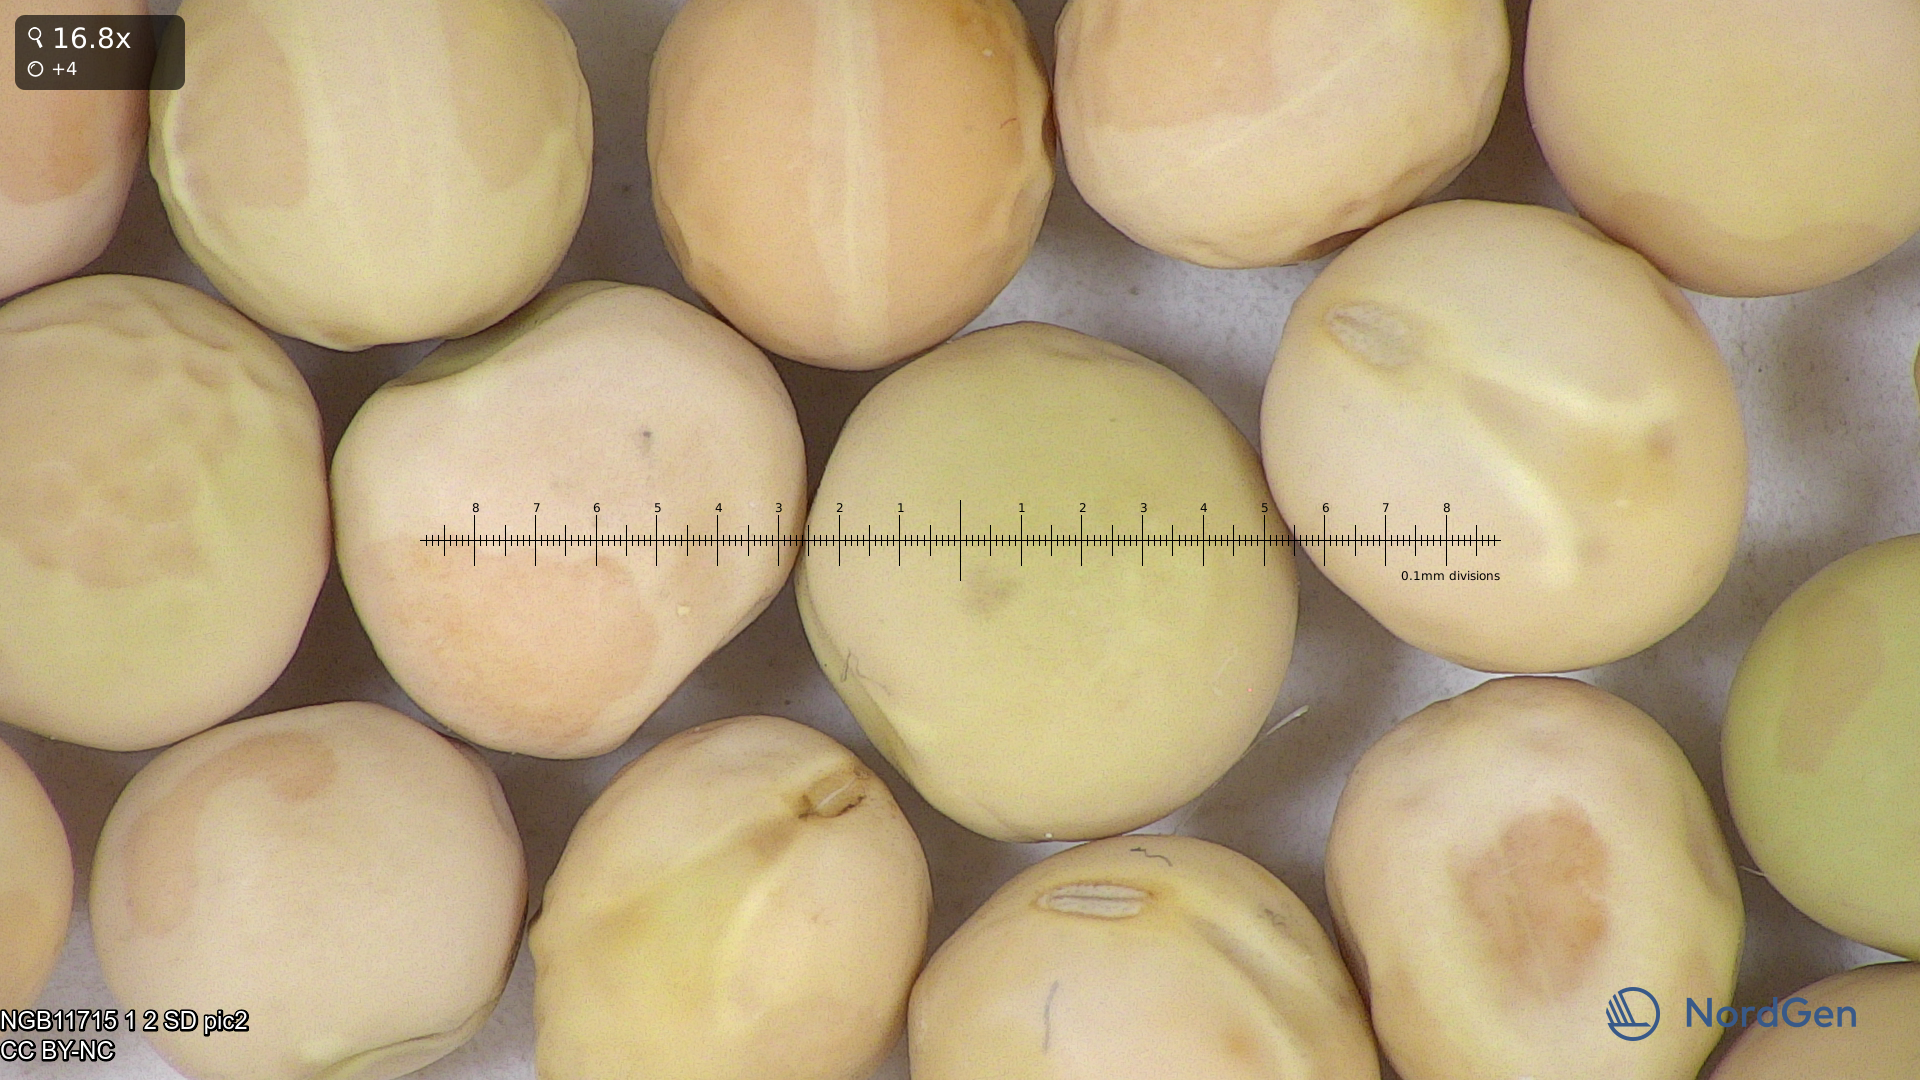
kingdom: Plantae
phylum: Tracheophyta
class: Magnoliopsida
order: Fabales
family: Fabaceae
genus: Lathyrus
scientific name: Lathyrus oleraceus
